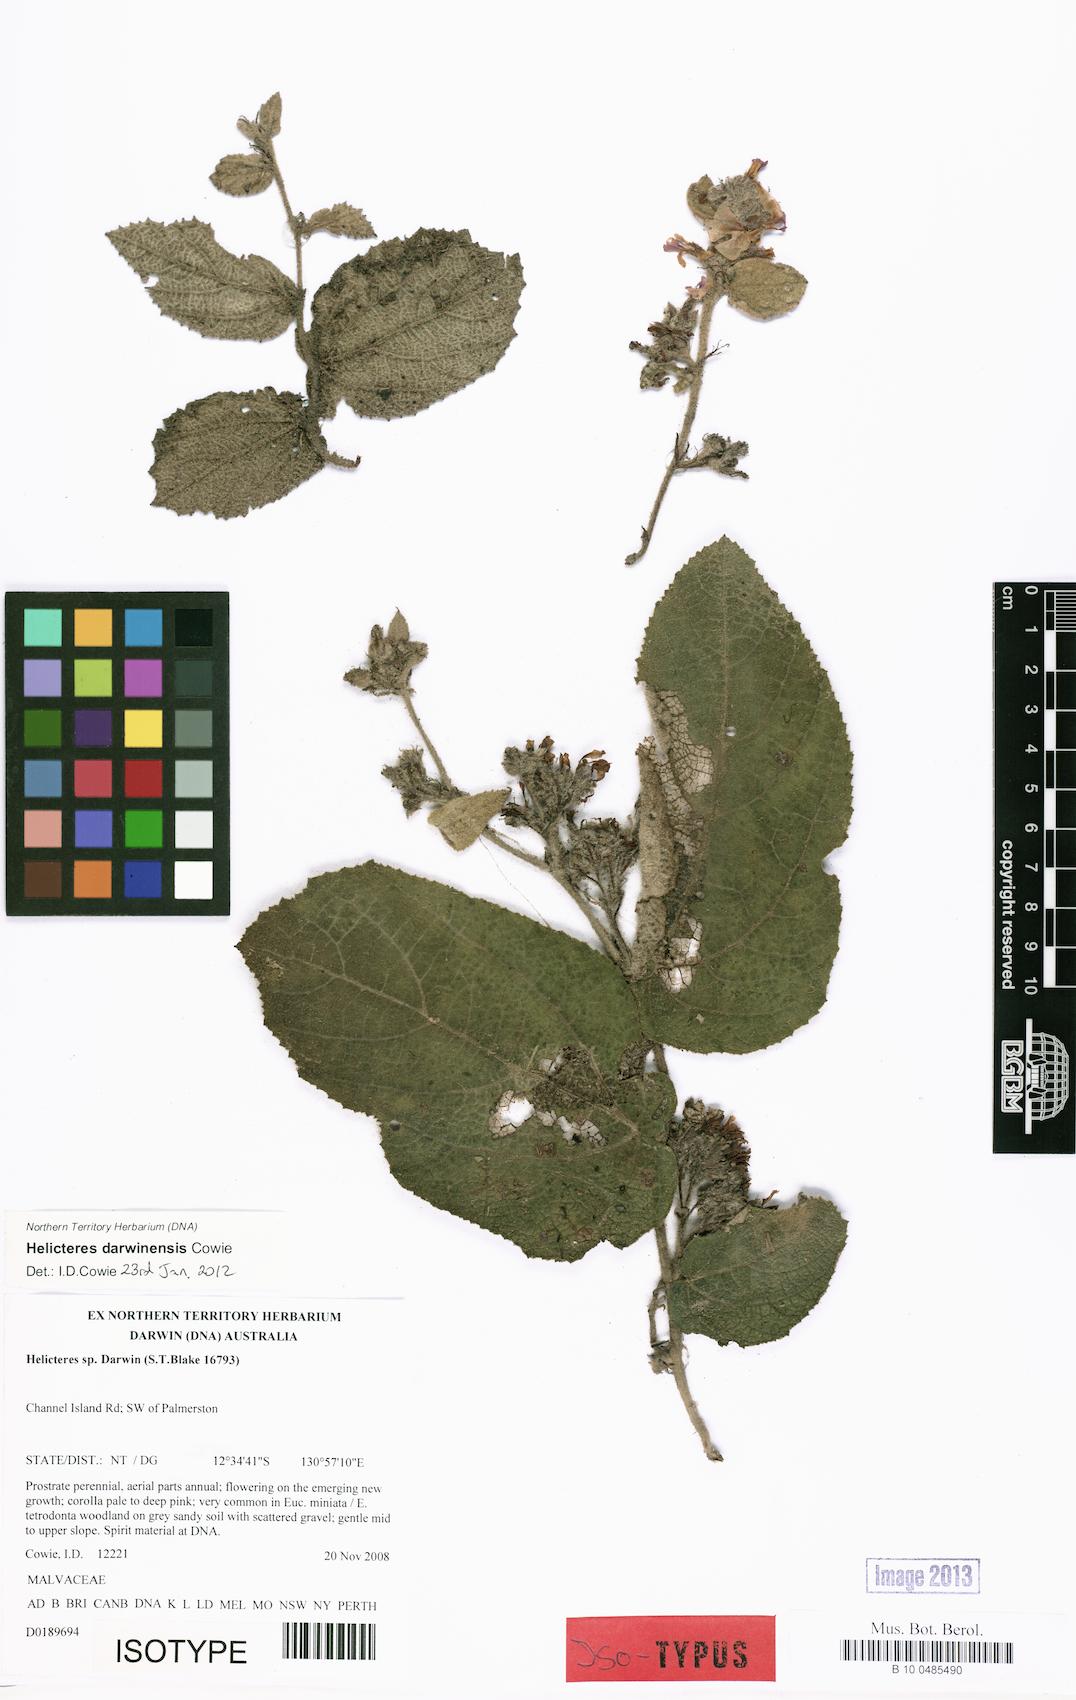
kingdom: Plantae
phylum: Tracheophyta
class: Magnoliopsida
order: Malvales
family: Malvaceae
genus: Helicteres
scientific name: Helicteres darwinensis
